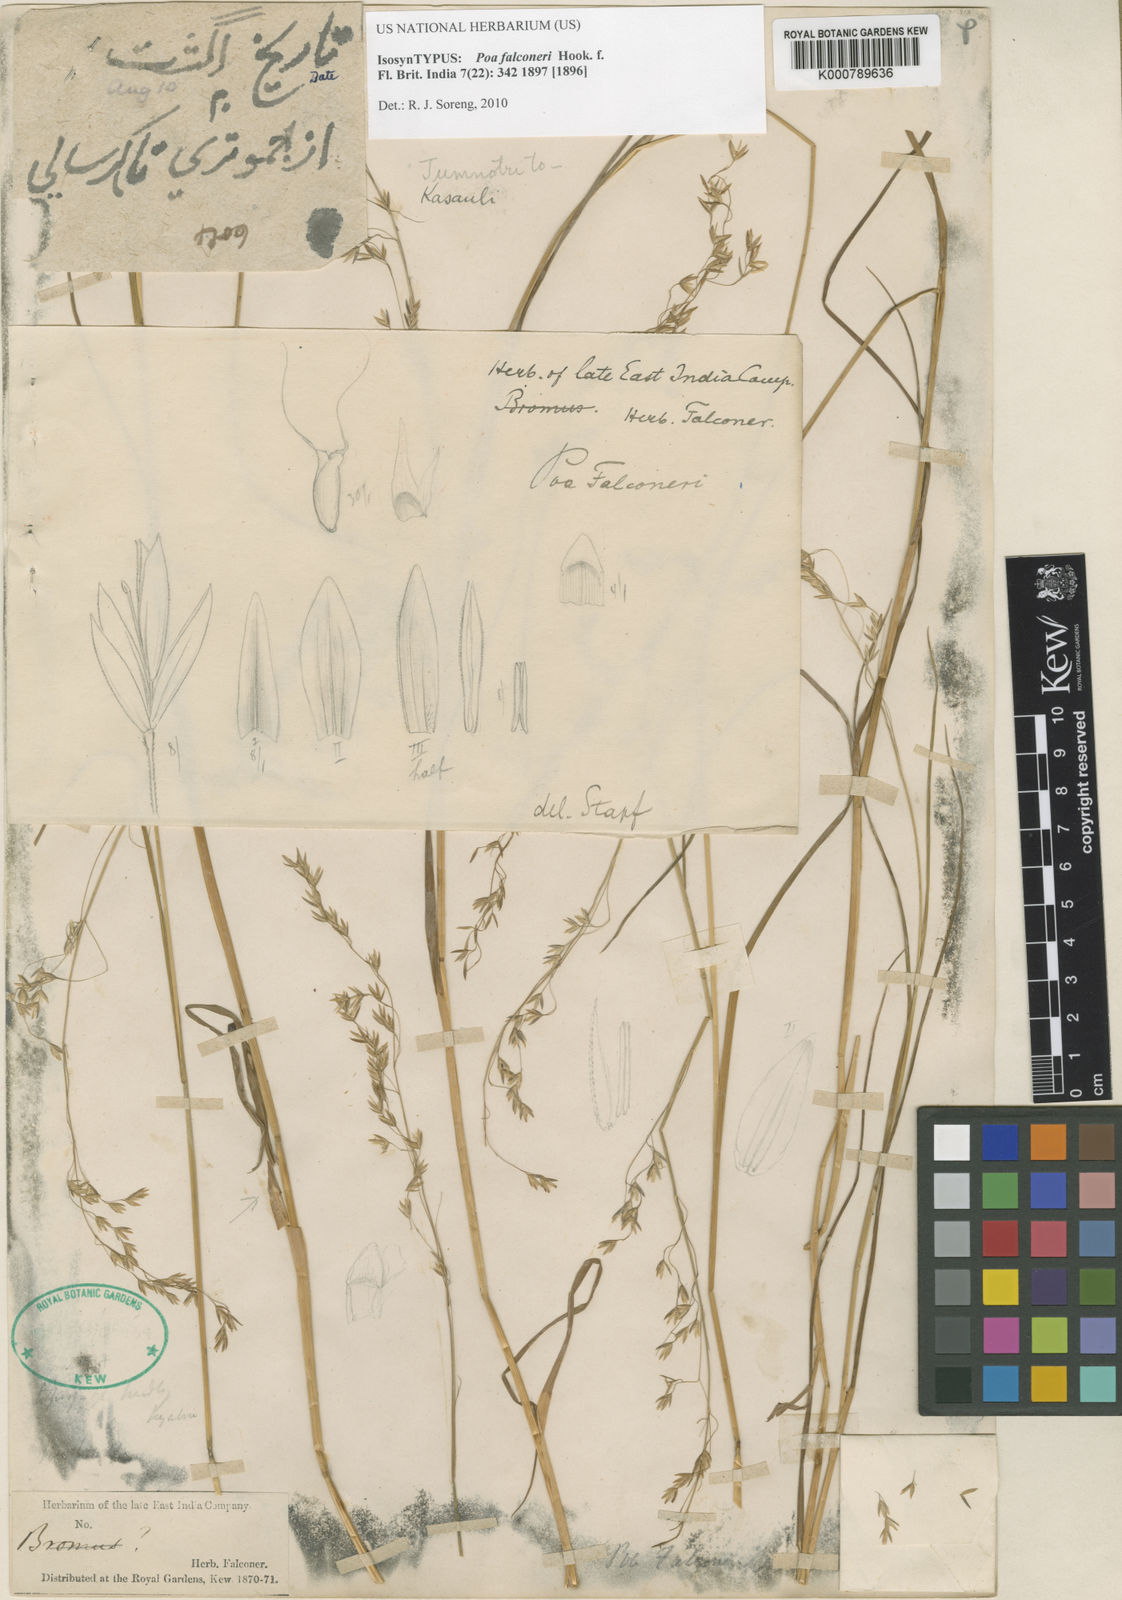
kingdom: Plantae
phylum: Tracheophyta
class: Liliopsida
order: Poales
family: Poaceae
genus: Poa
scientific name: Poa falconeri
